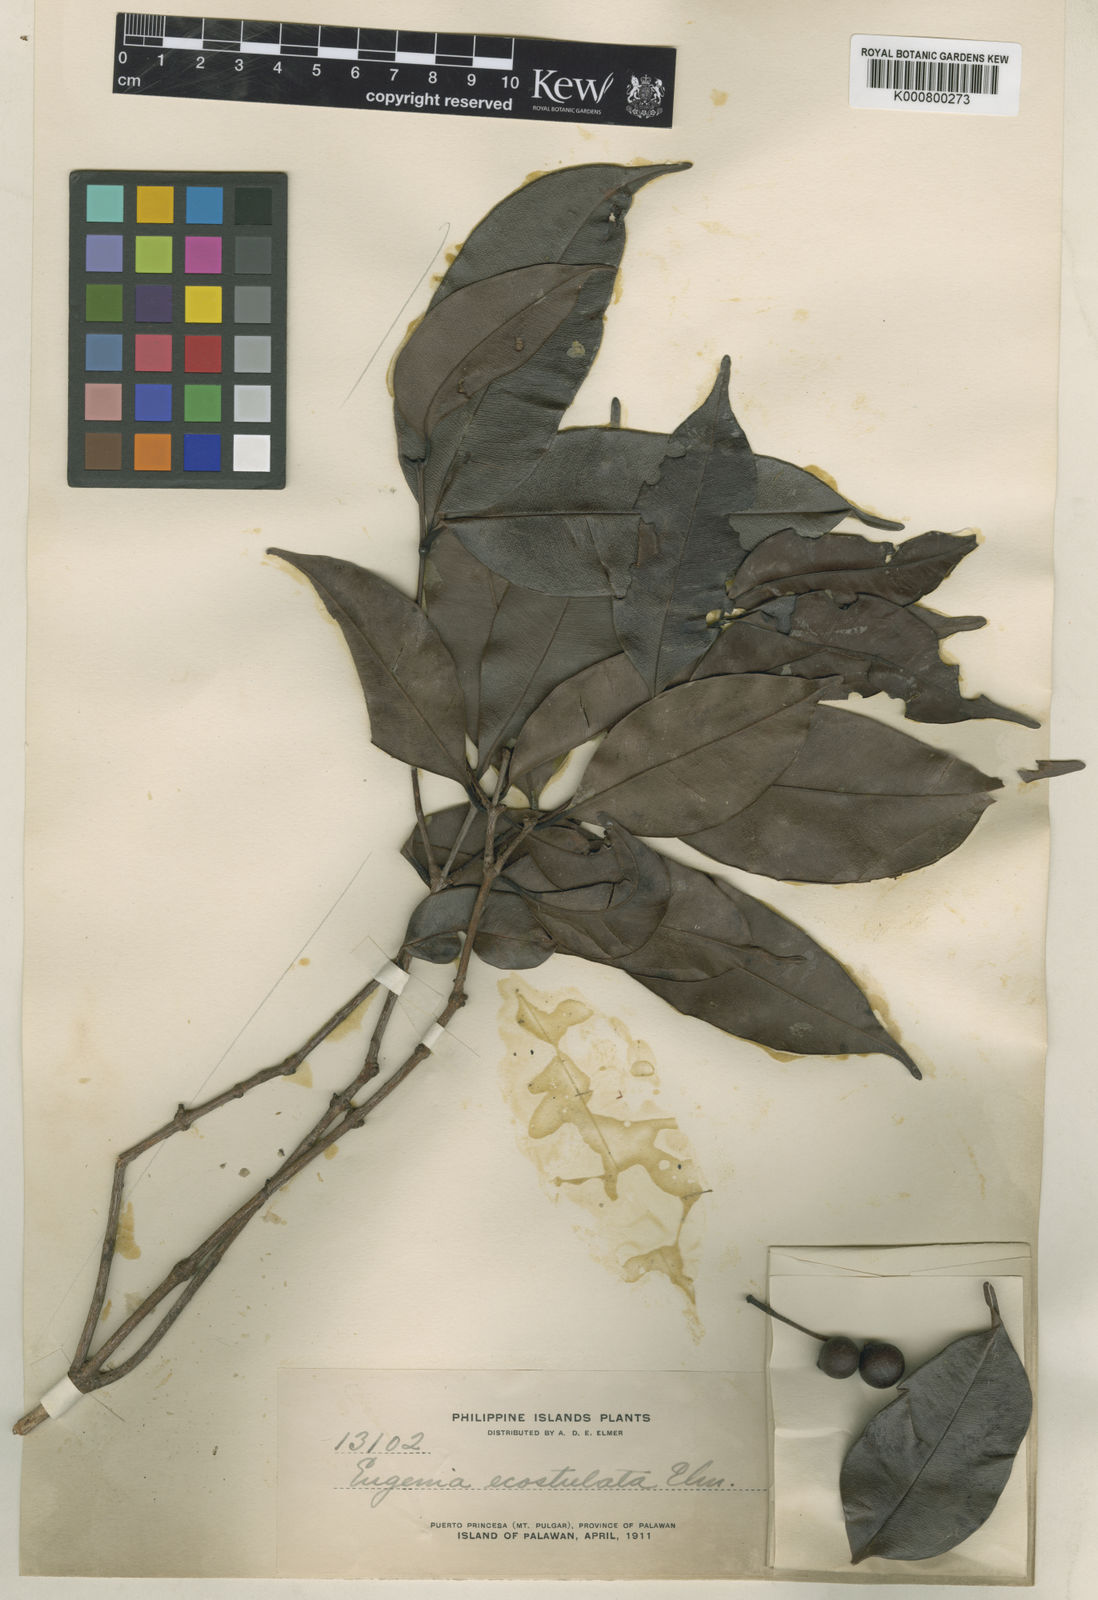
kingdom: Plantae
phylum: Tracheophyta
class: Magnoliopsida
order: Myrtales
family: Myrtaceae
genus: Syzygium
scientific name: Syzygium ecostulatum
